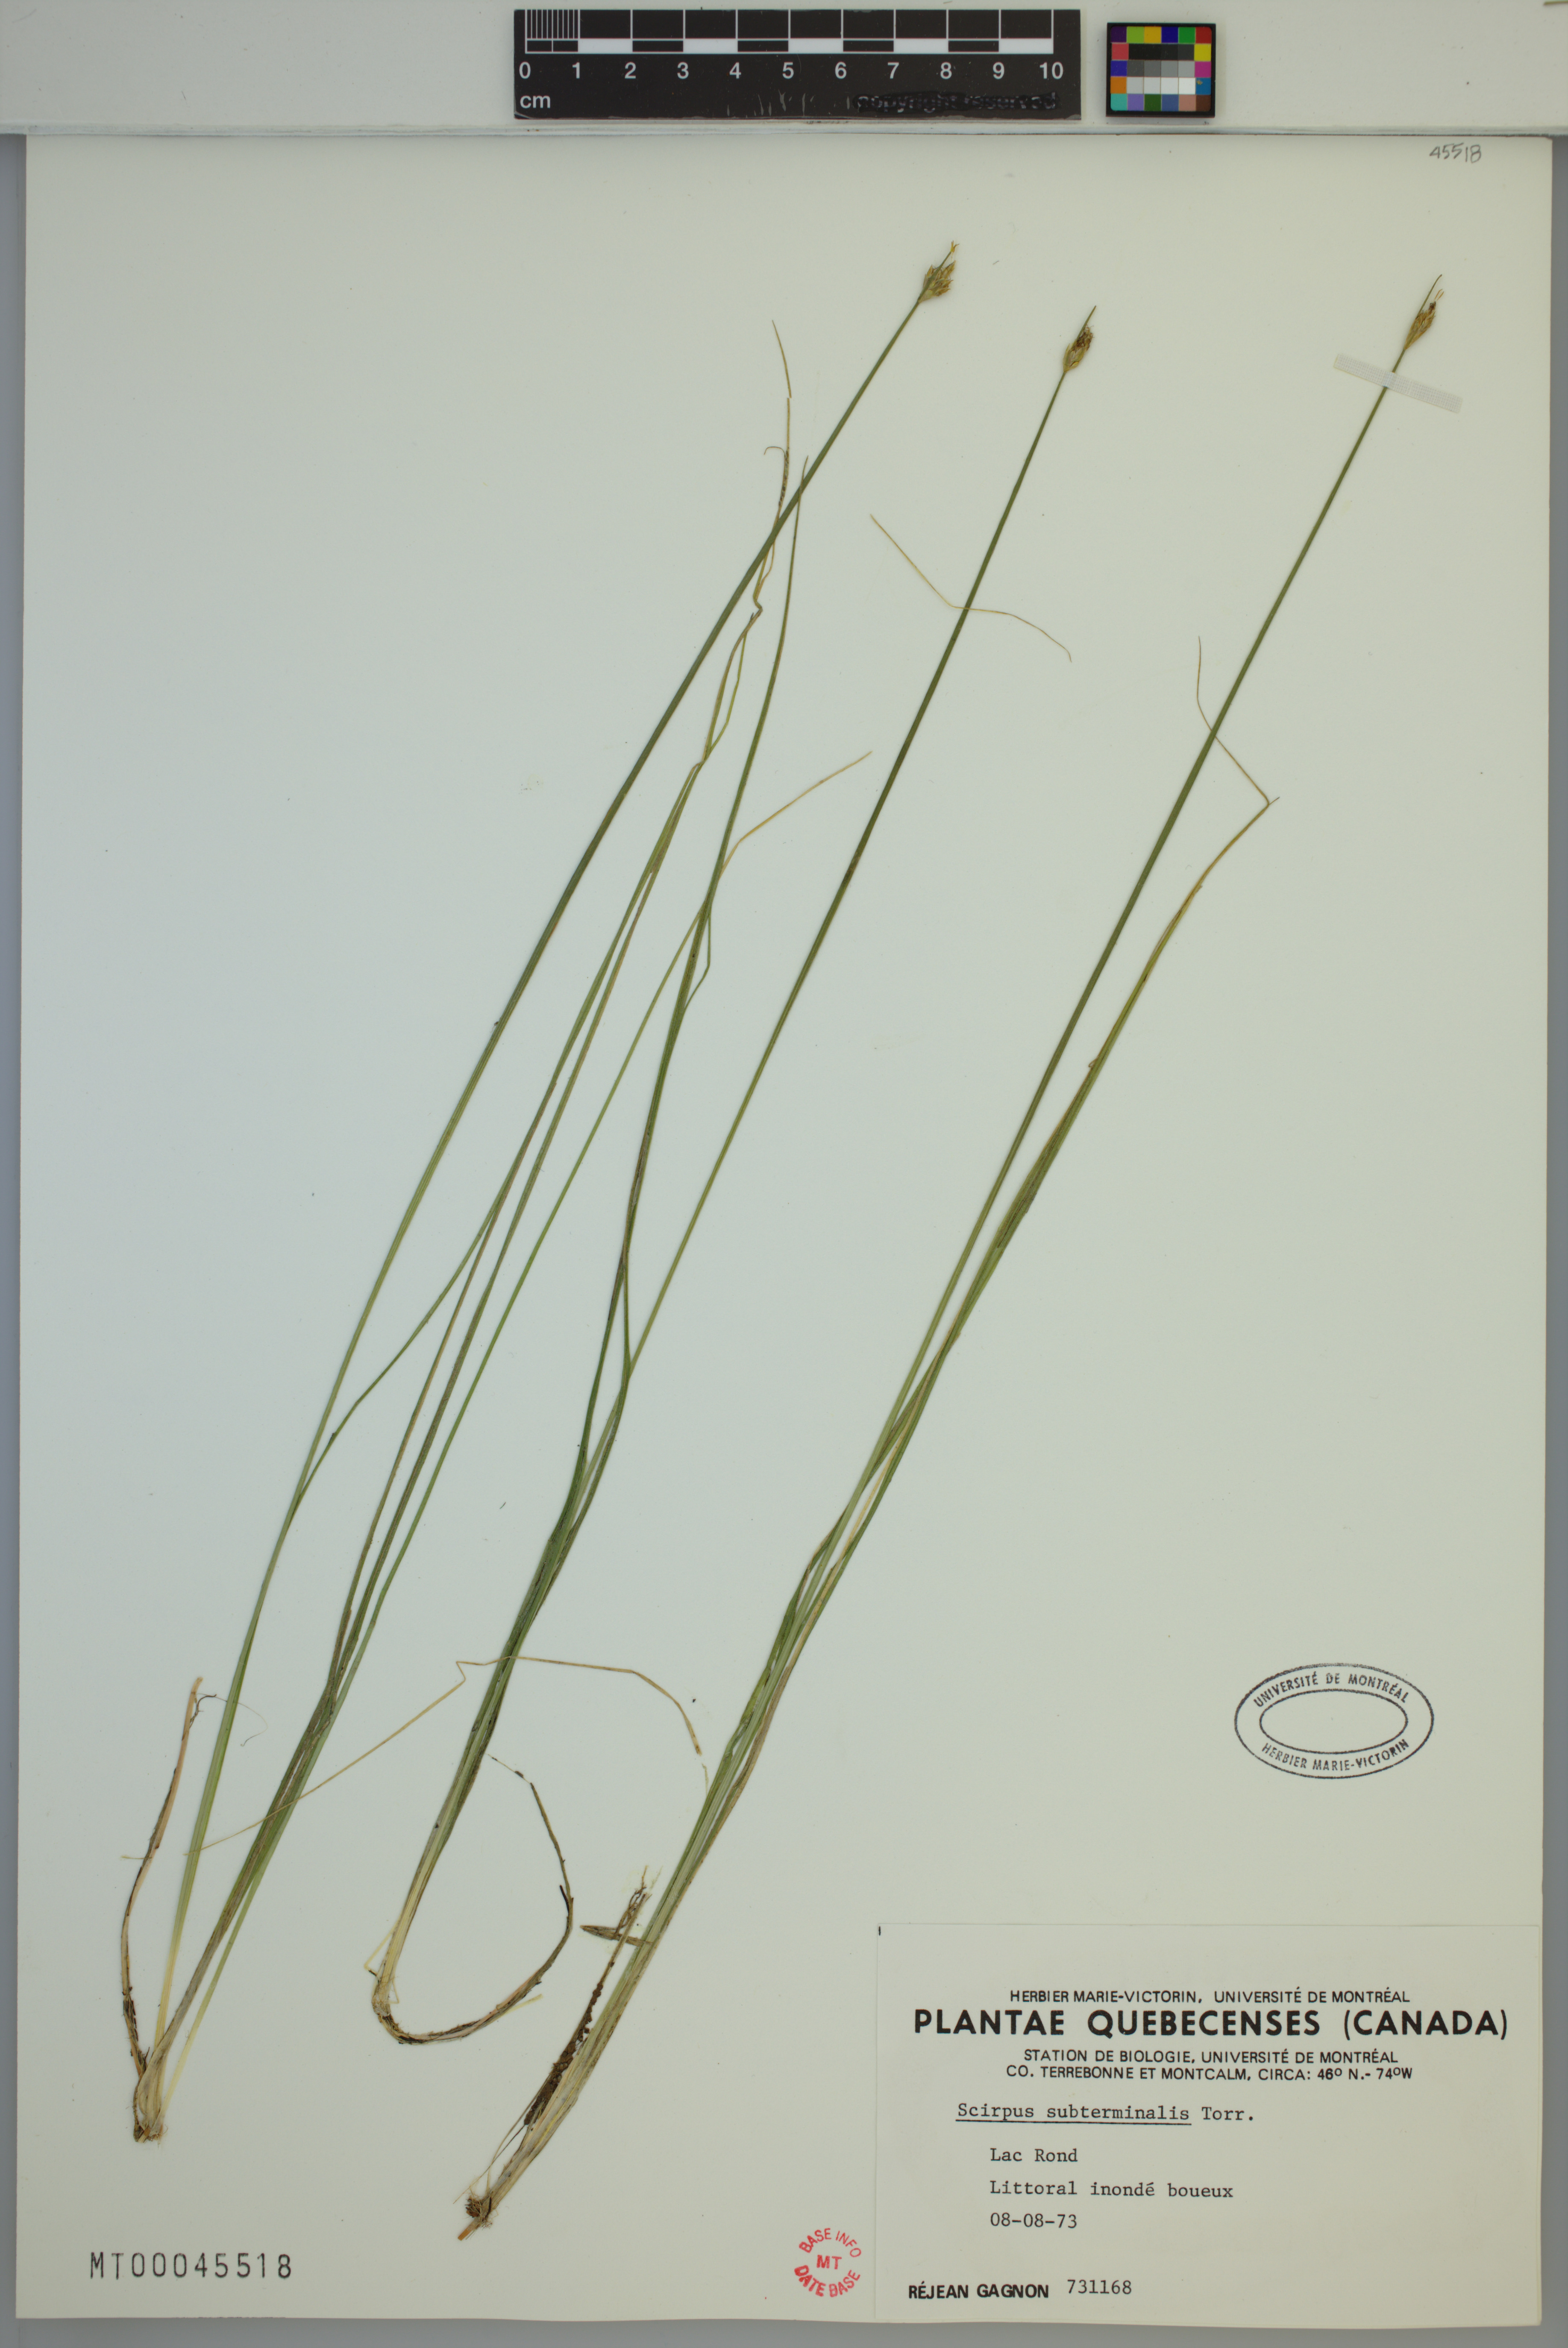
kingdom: Plantae
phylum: Tracheophyta
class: Liliopsida
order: Poales
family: Cyperaceae
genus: Schoenoplectus
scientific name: Schoenoplectus subterminalis
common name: Swaying bulrush
